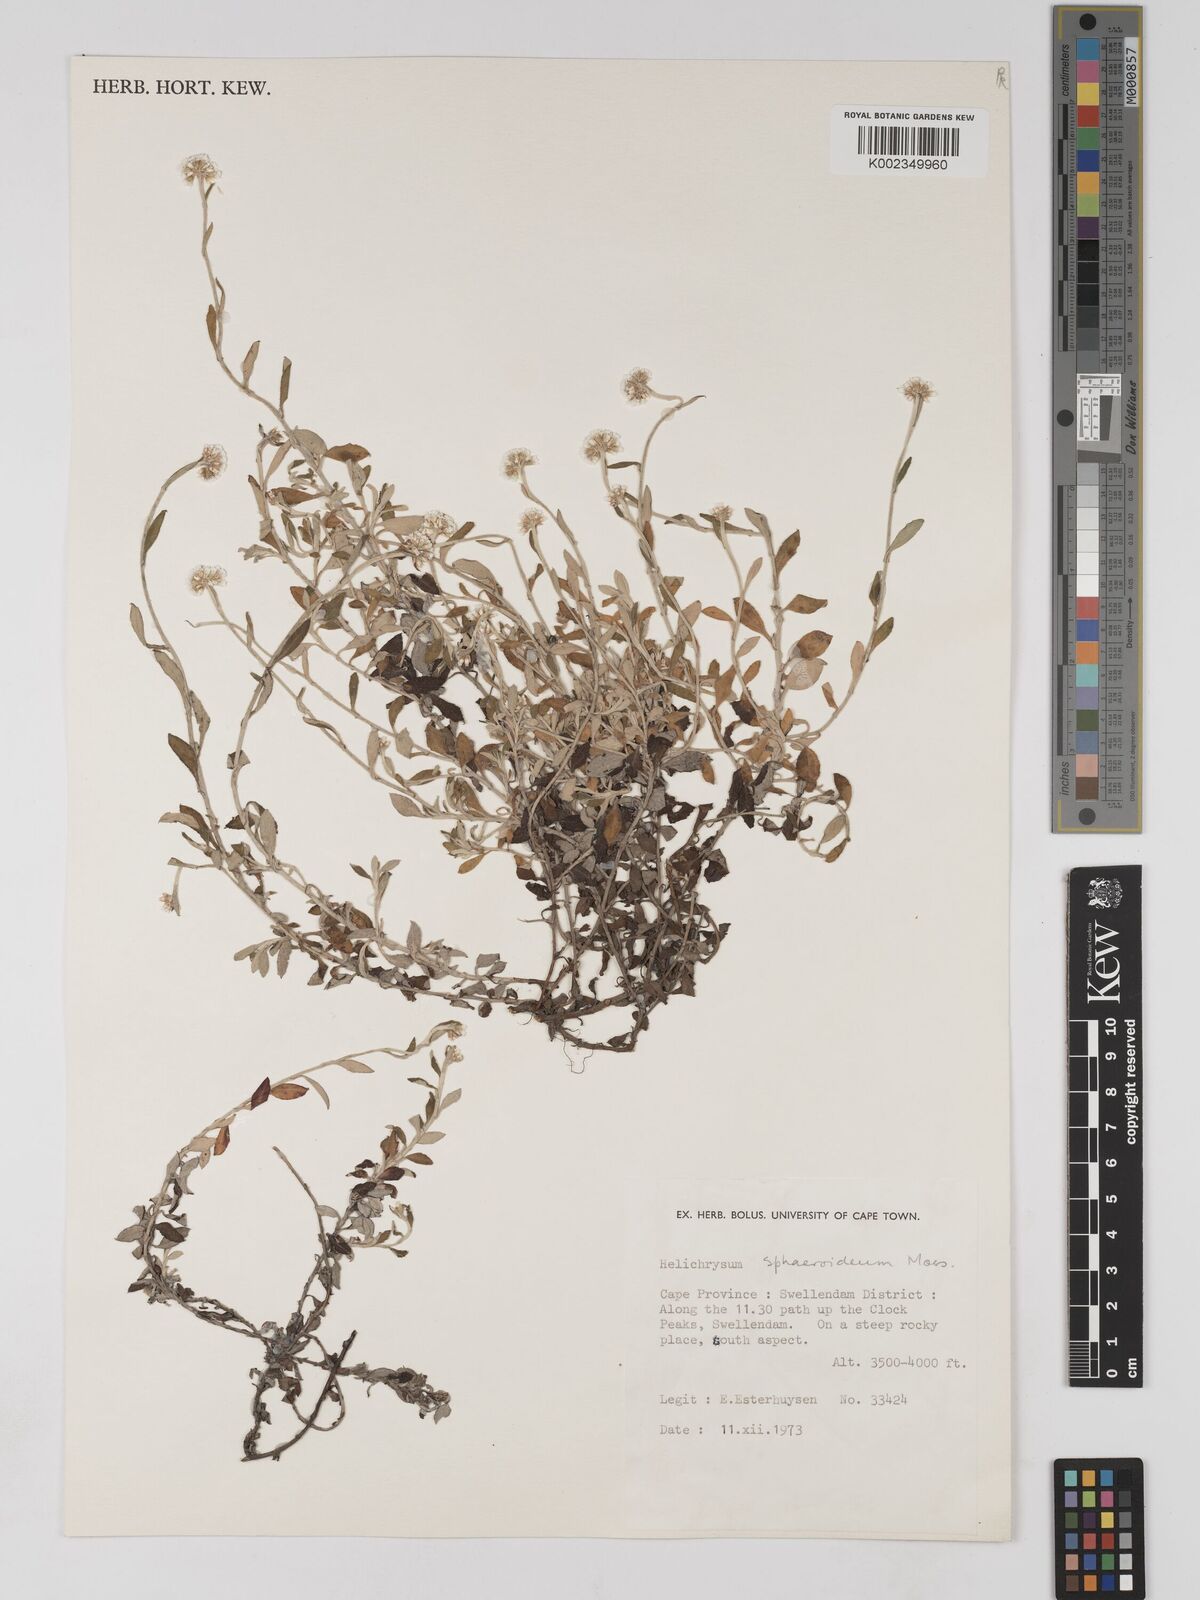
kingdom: Plantae
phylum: Tracheophyta
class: Magnoliopsida
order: Asterales
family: Asteraceae
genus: Helichrysum
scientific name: Helichrysum sphaeroideum
